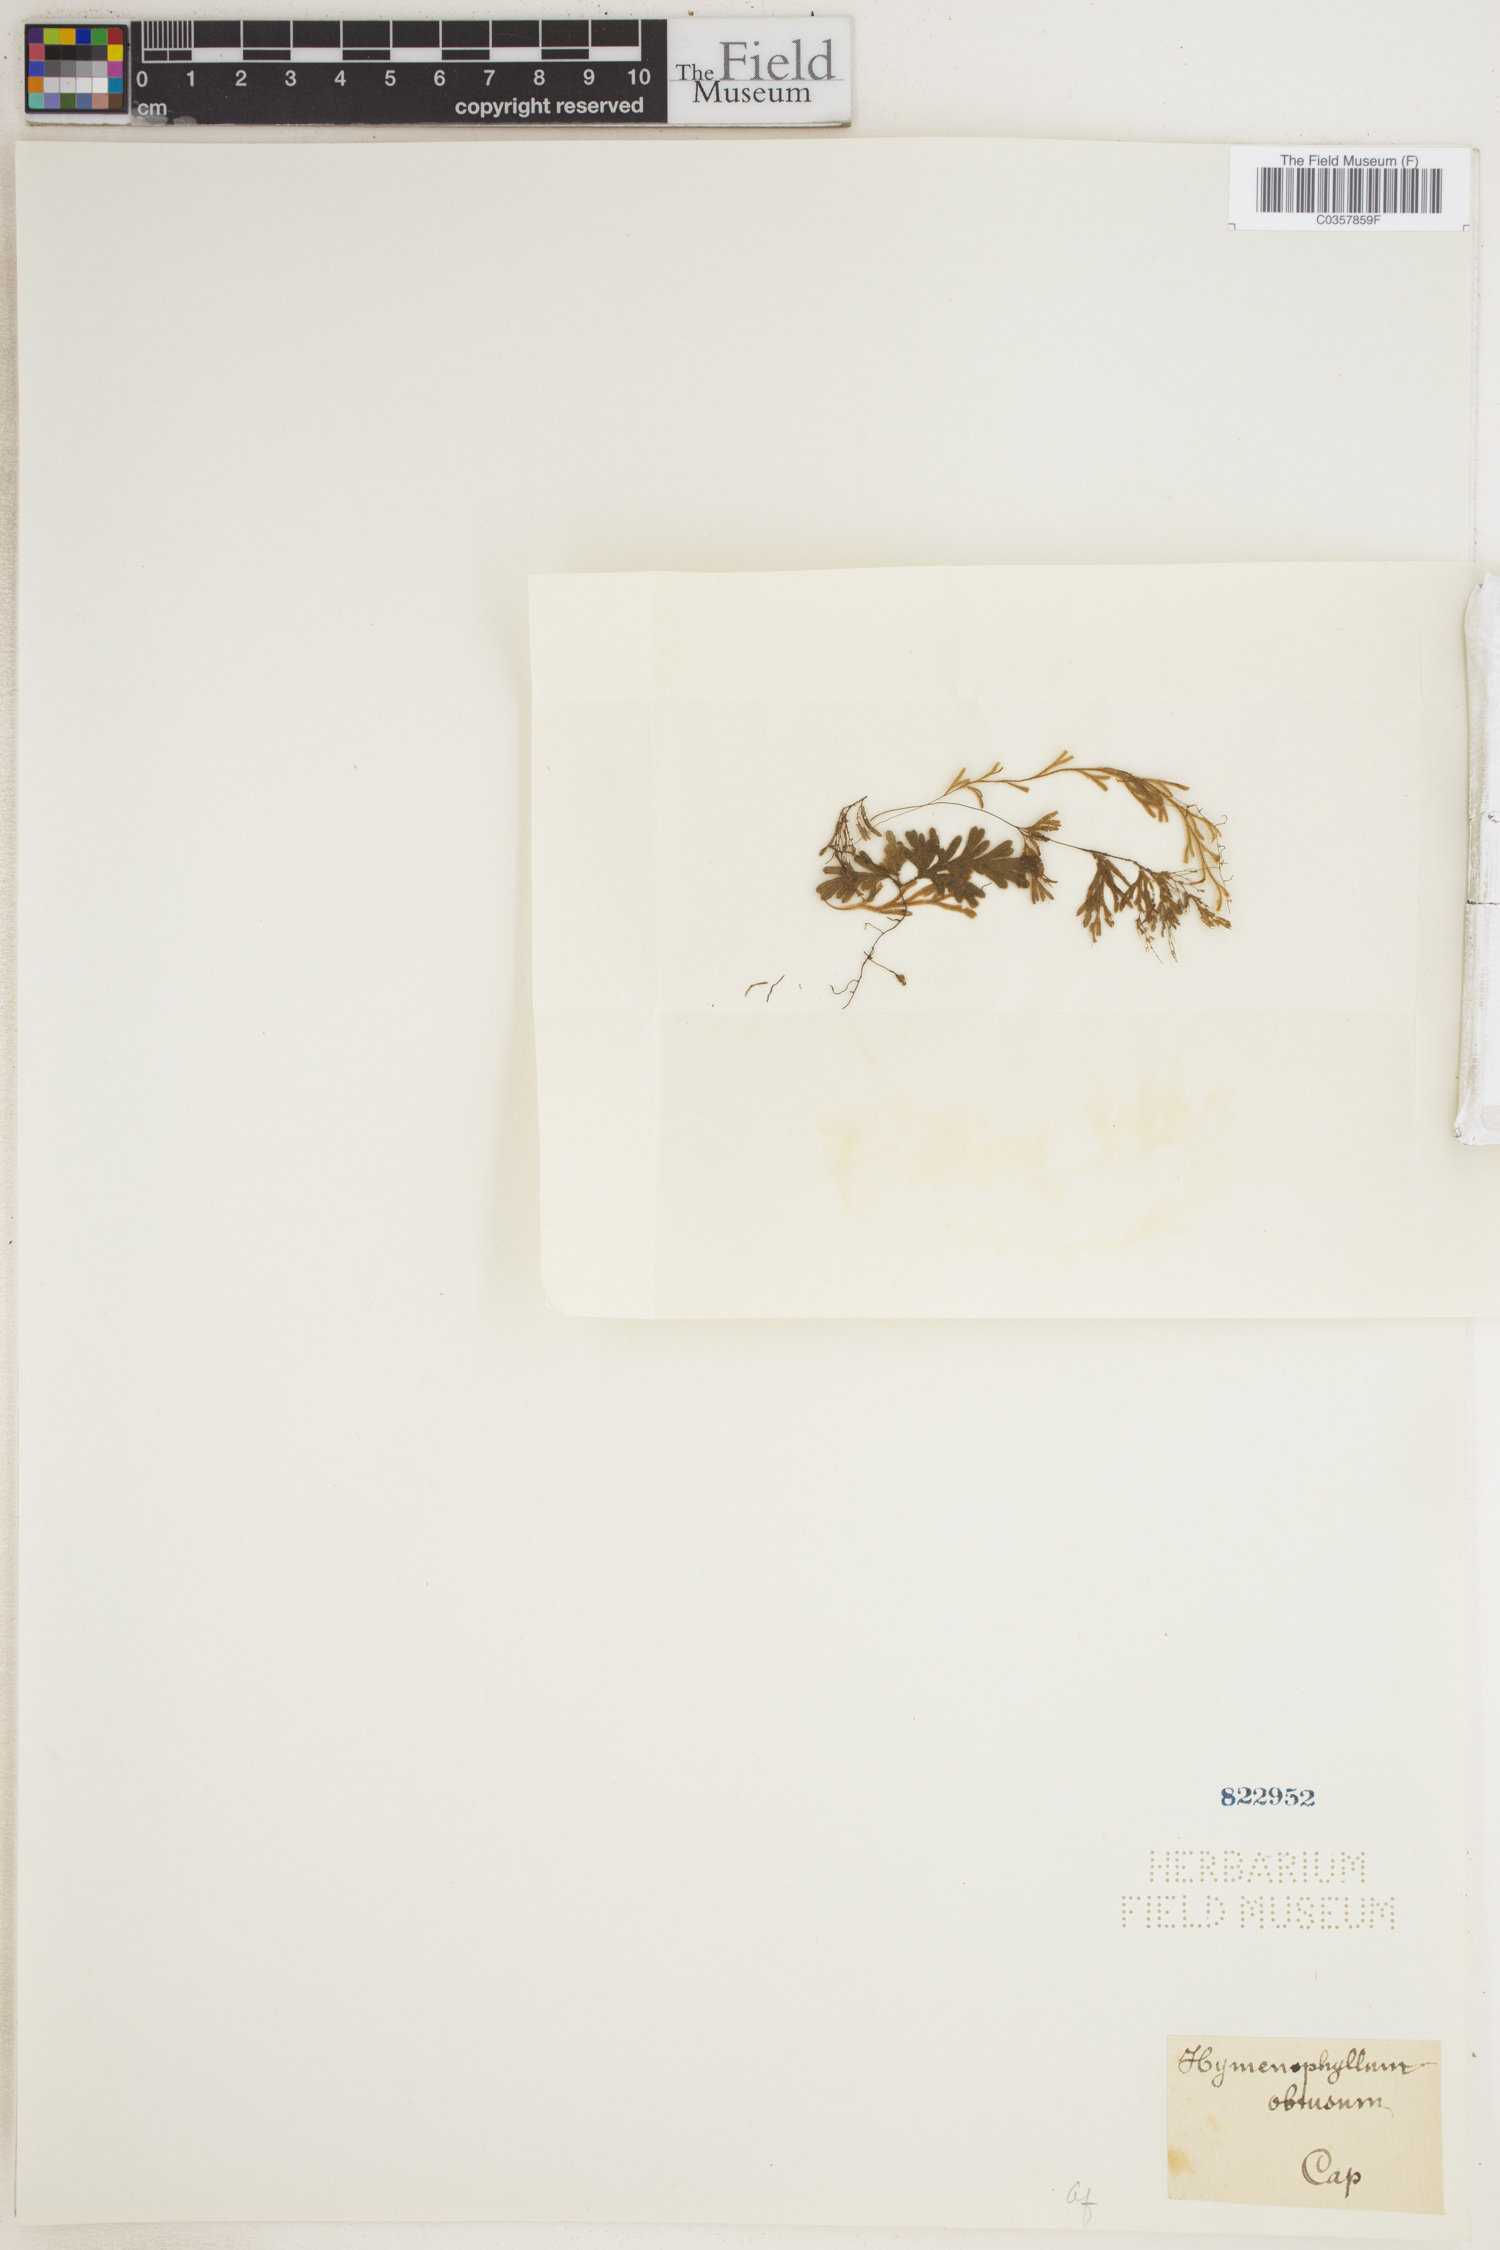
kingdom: Plantae
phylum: Tracheophyta
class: Polypodiopsida
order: Hymenophyllales
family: Hymenophyllaceae
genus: Hymenophyllum
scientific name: Hymenophyllum obtusum
